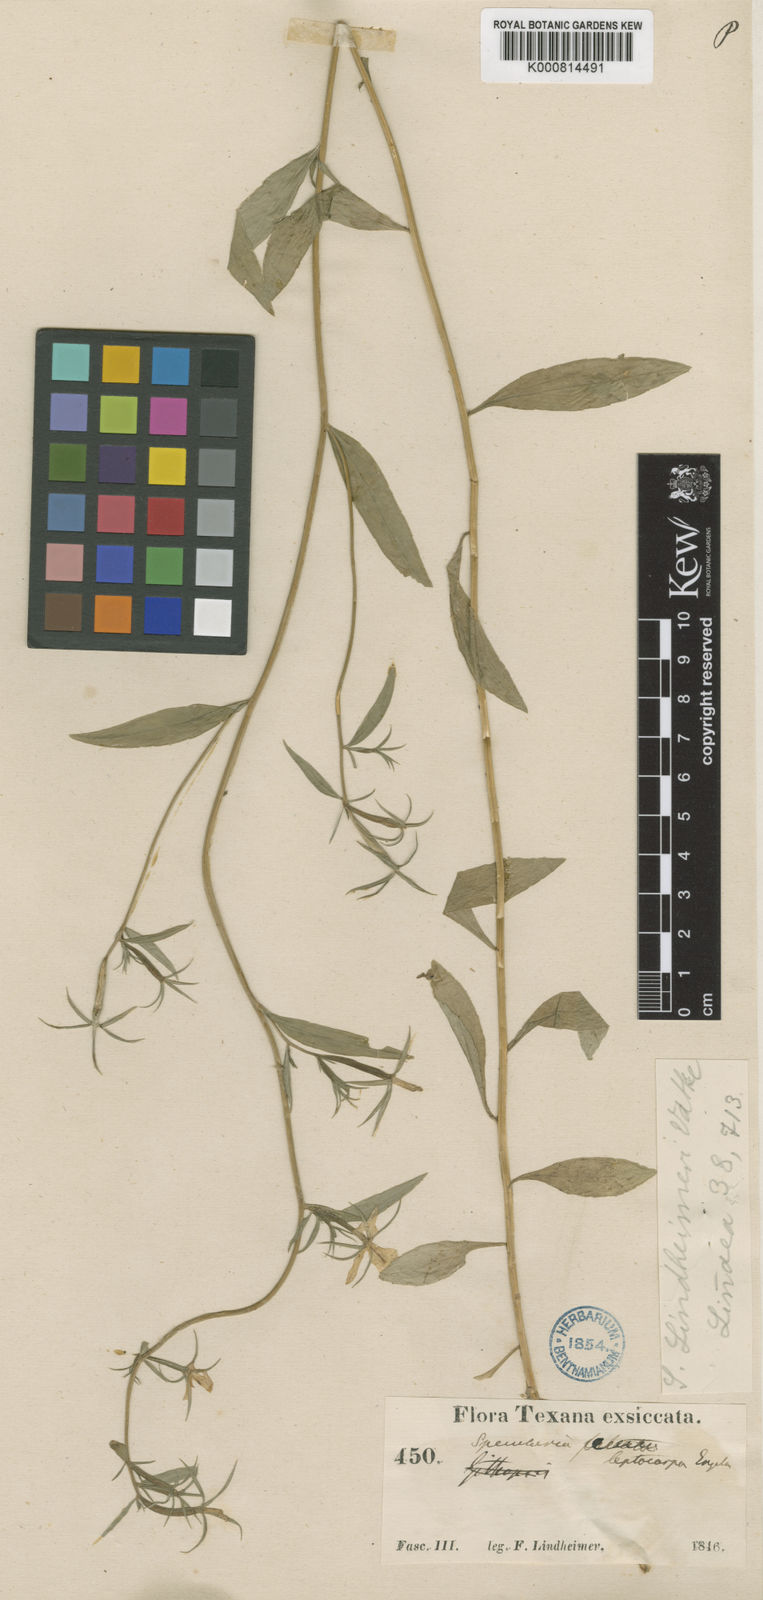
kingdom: Plantae
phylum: Tracheophyta
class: Magnoliopsida
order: Asterales
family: Campanulaceae
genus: Triodanis
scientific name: Triodanis coloradoensis
